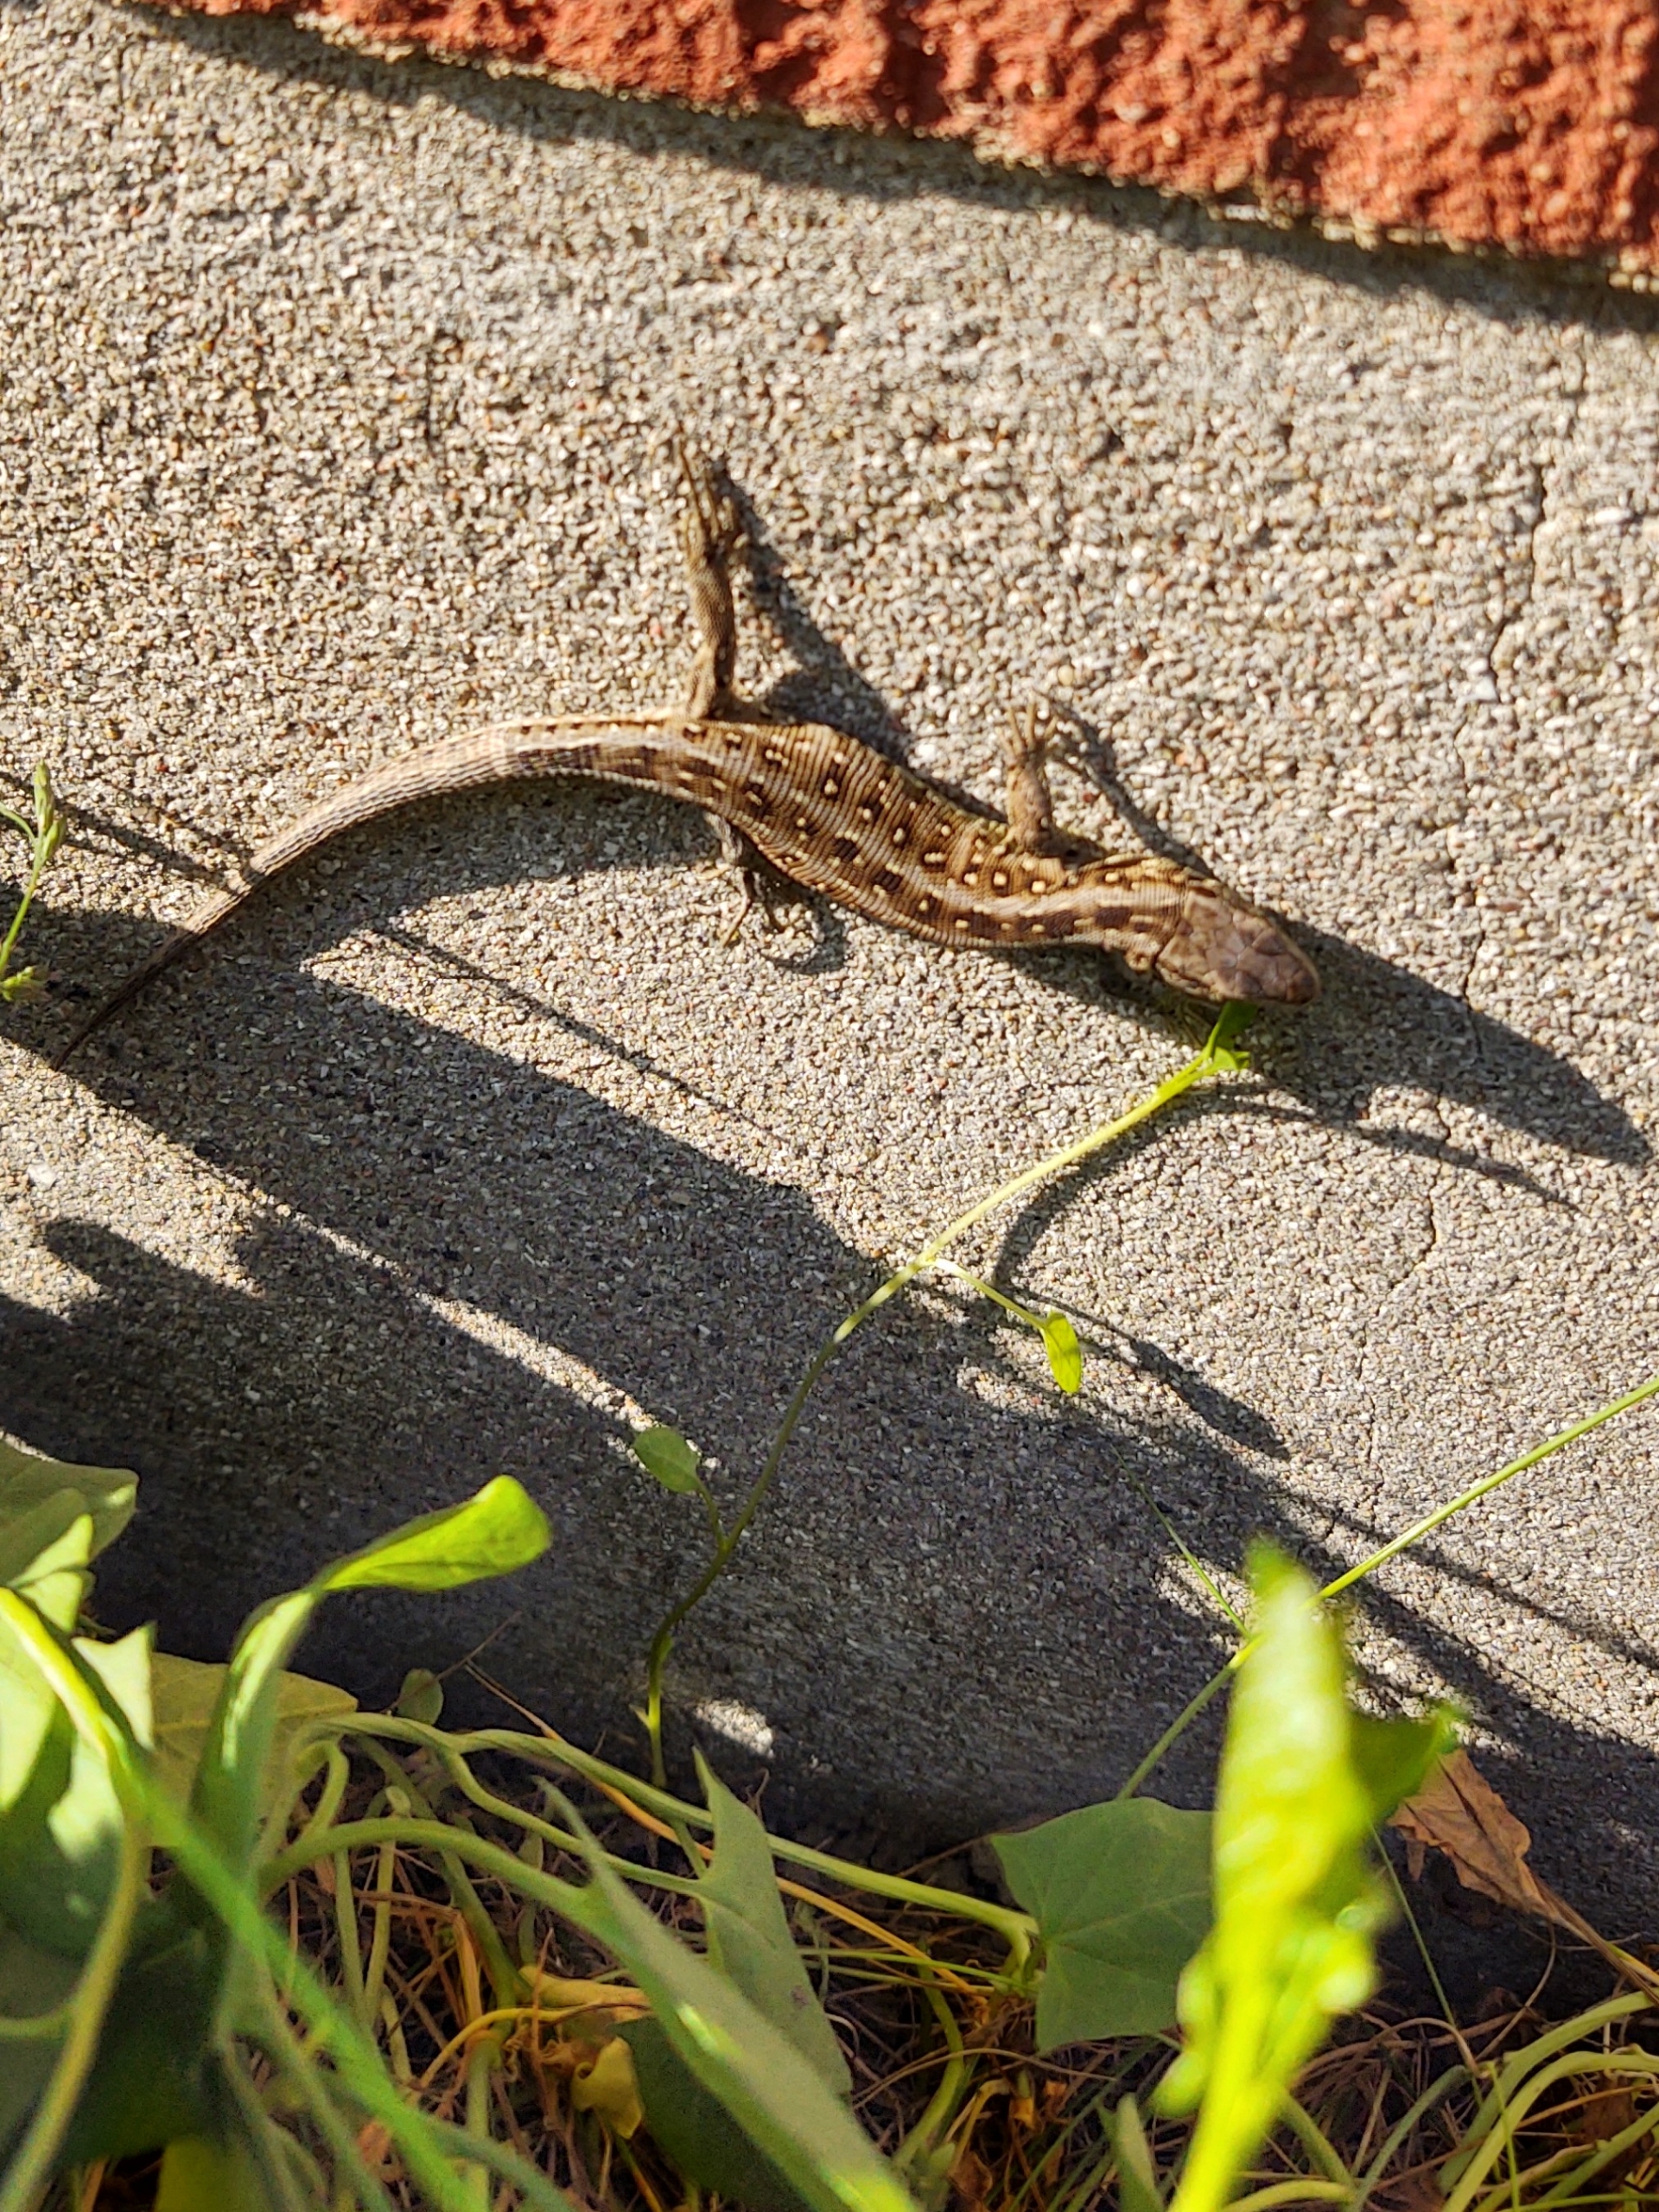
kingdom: Animalia
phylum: Chordata
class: Squamata
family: Lacertidae
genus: Lacerta
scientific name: Lacerta agilis
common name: Markfirben
